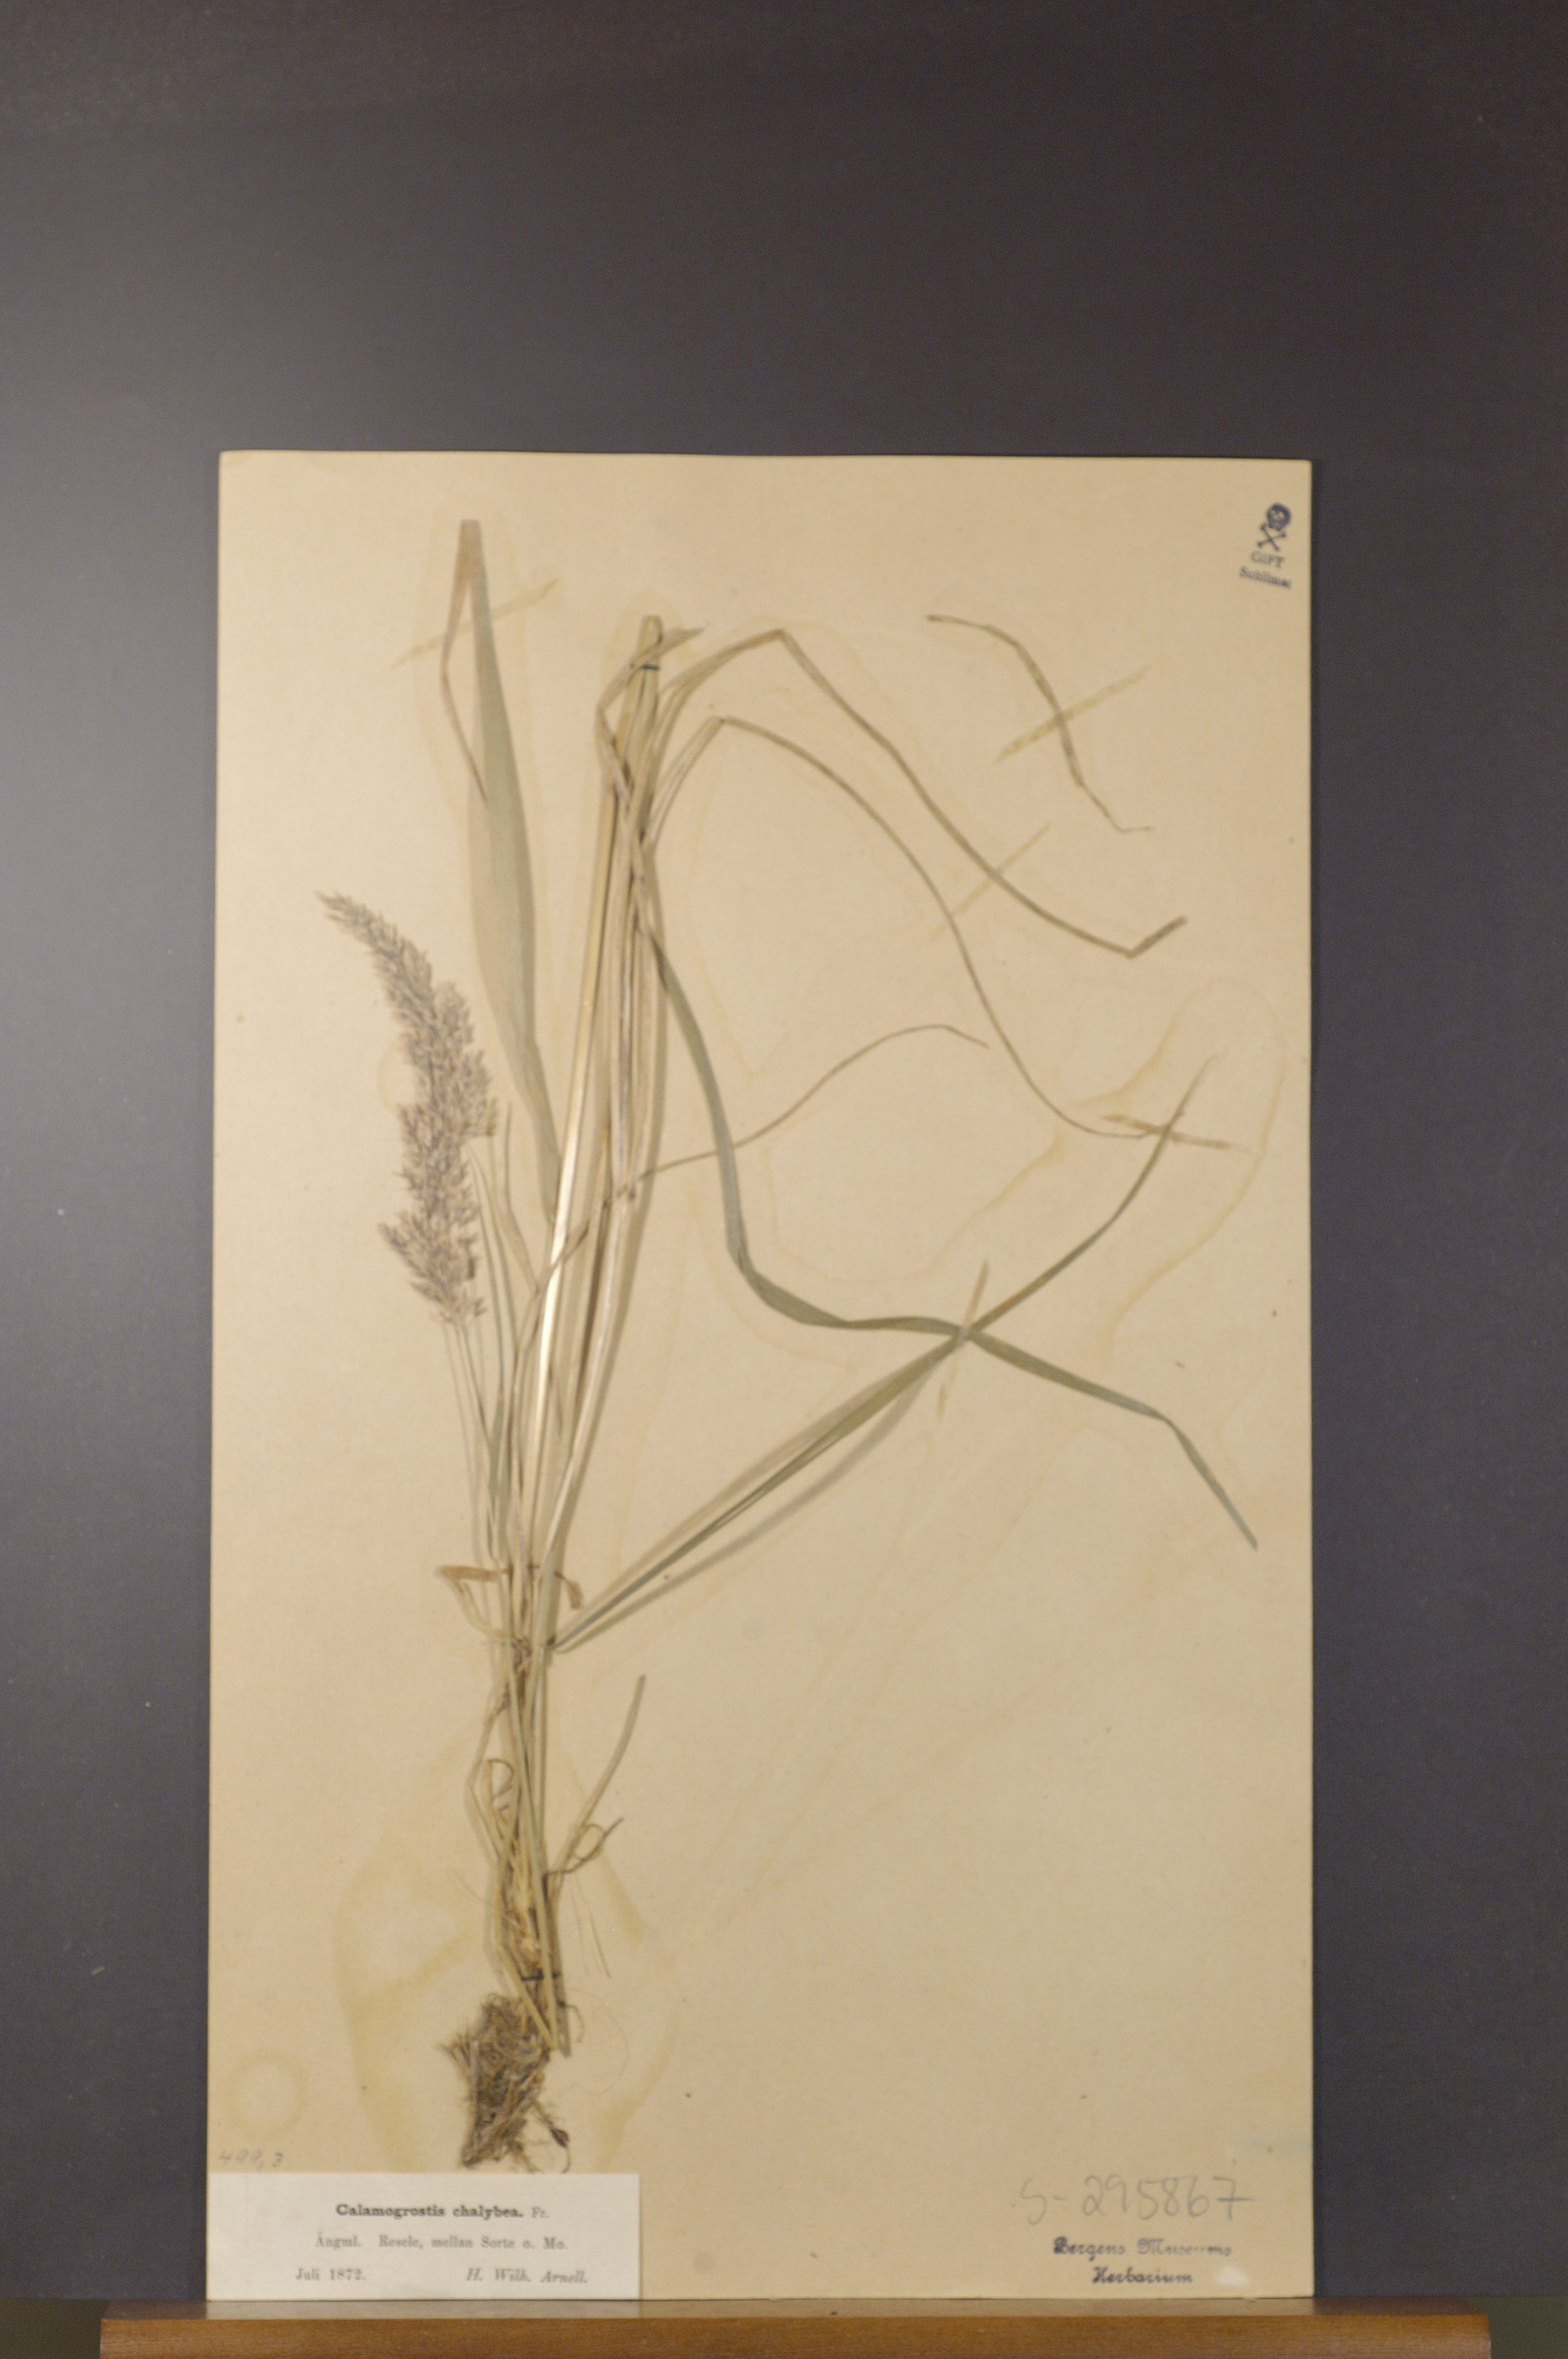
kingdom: Plantae
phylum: Tracheophyta
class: Liliopsida
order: Poales
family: Poaceae
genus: Calamagrostis
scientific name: Calamagrostis chalybaea
